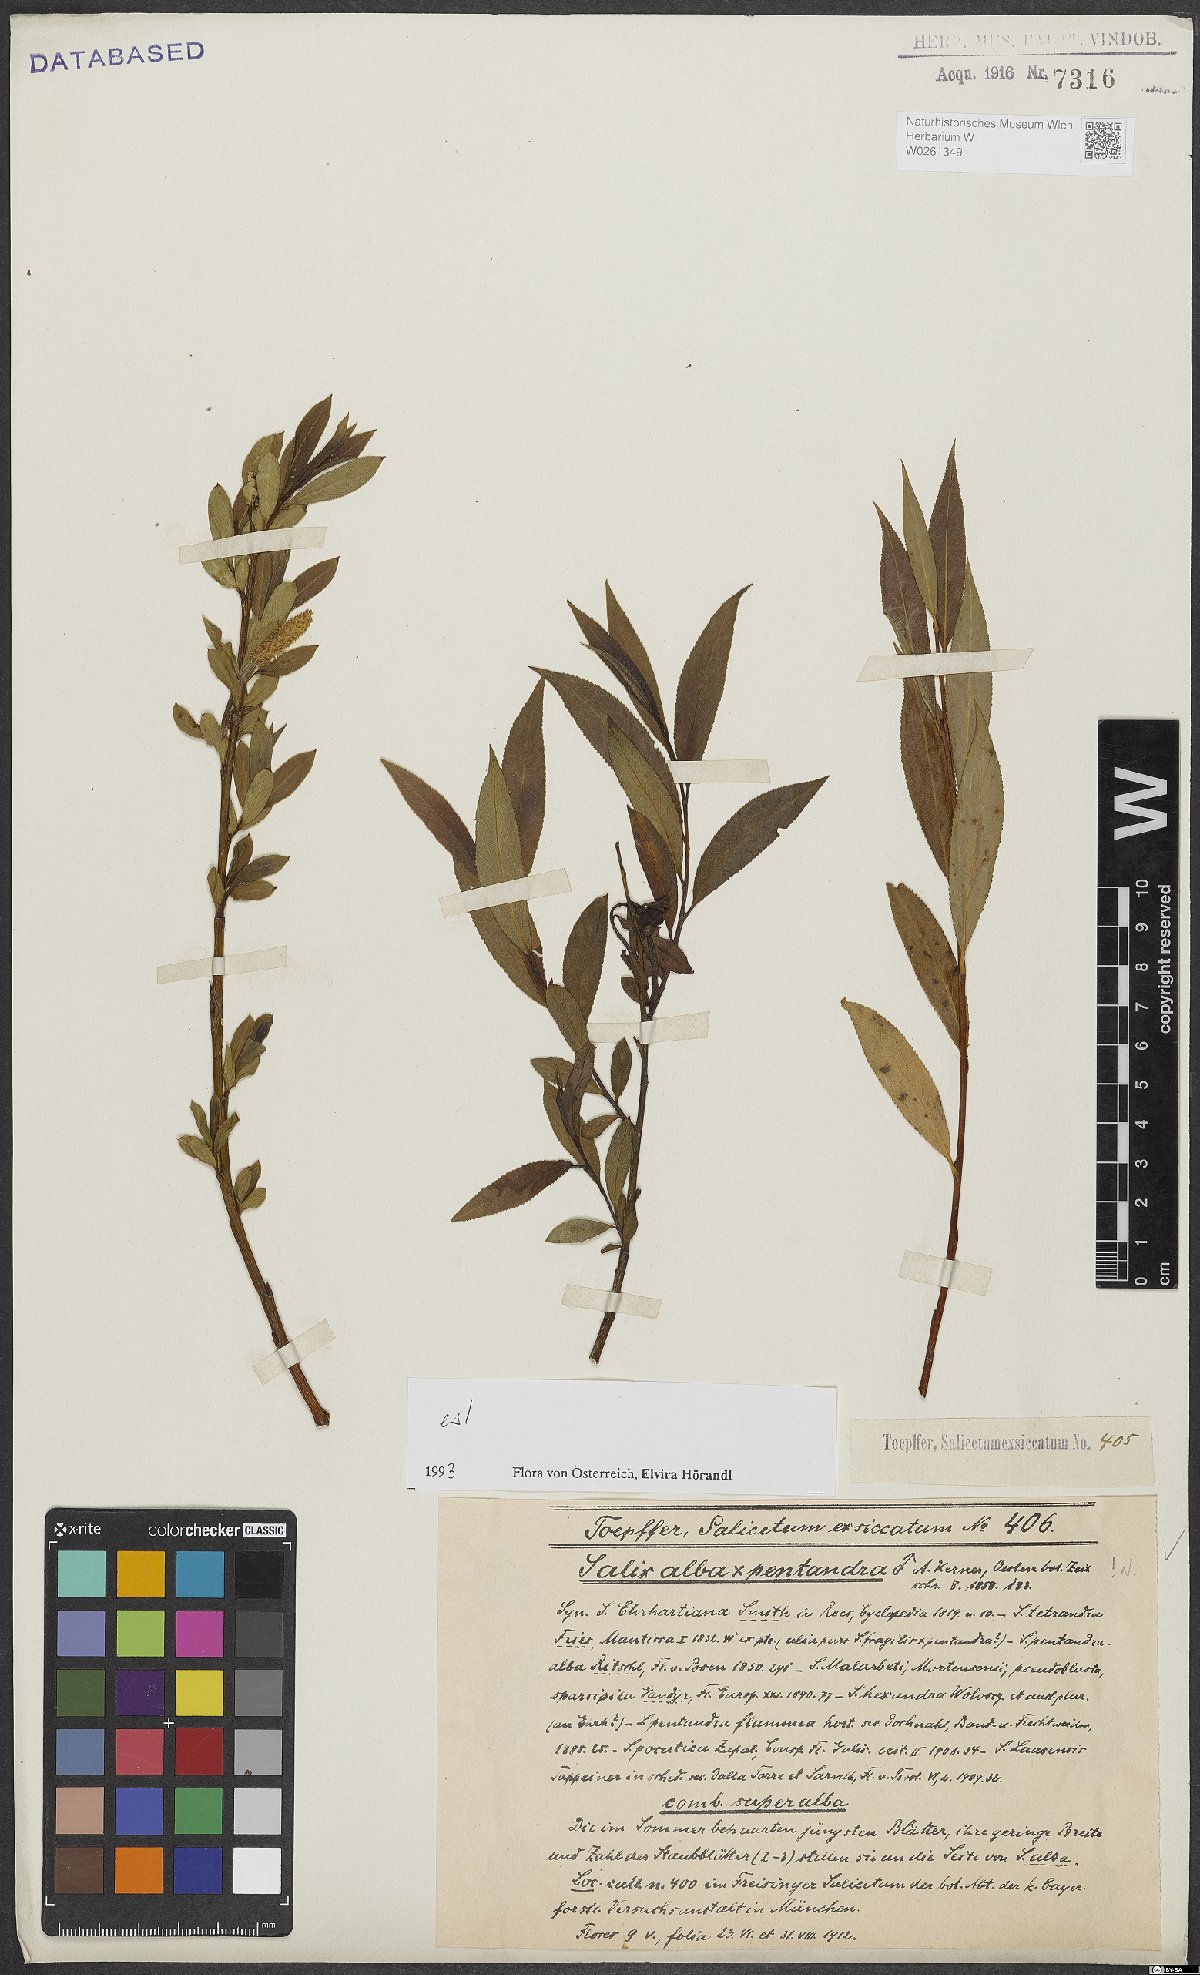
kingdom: Plantae
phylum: Tracheophyta
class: Magnoliopsida
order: Malpighiales
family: Salicaceae
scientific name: Salicaceae
